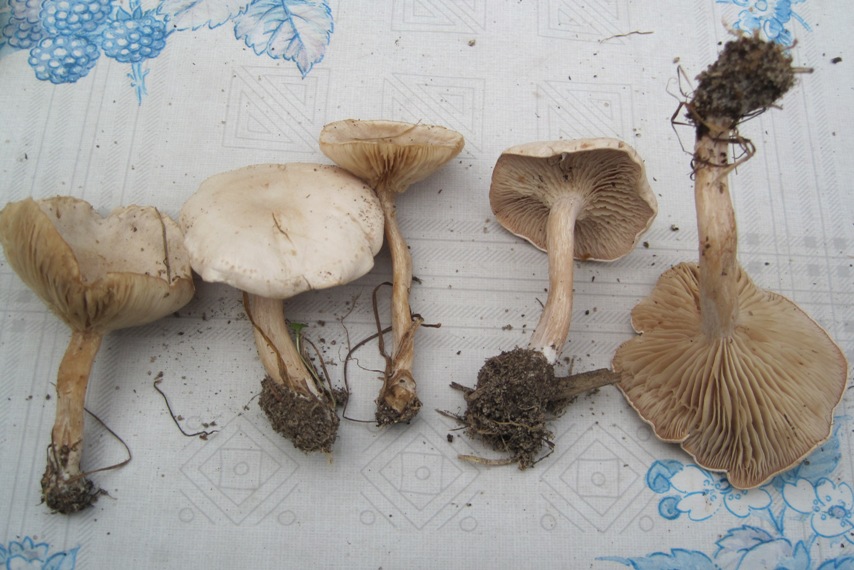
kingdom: Fungi
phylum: Basidiomycota
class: Agaricomycetes
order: Agaricales
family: Tricholomataceae
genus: Clitocybe
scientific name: Clitocybe rivulosa
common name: eng-tragthat
